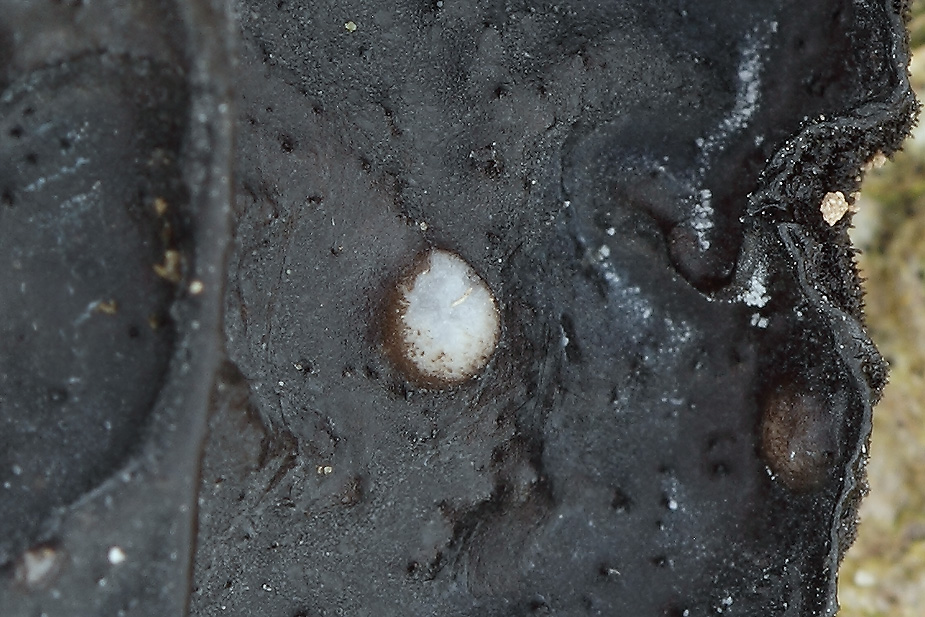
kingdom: Fungi
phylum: Basidiomycota
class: Tremellomycetes
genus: Heteromycophaga
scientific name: Heteromycophaga glandulosae
